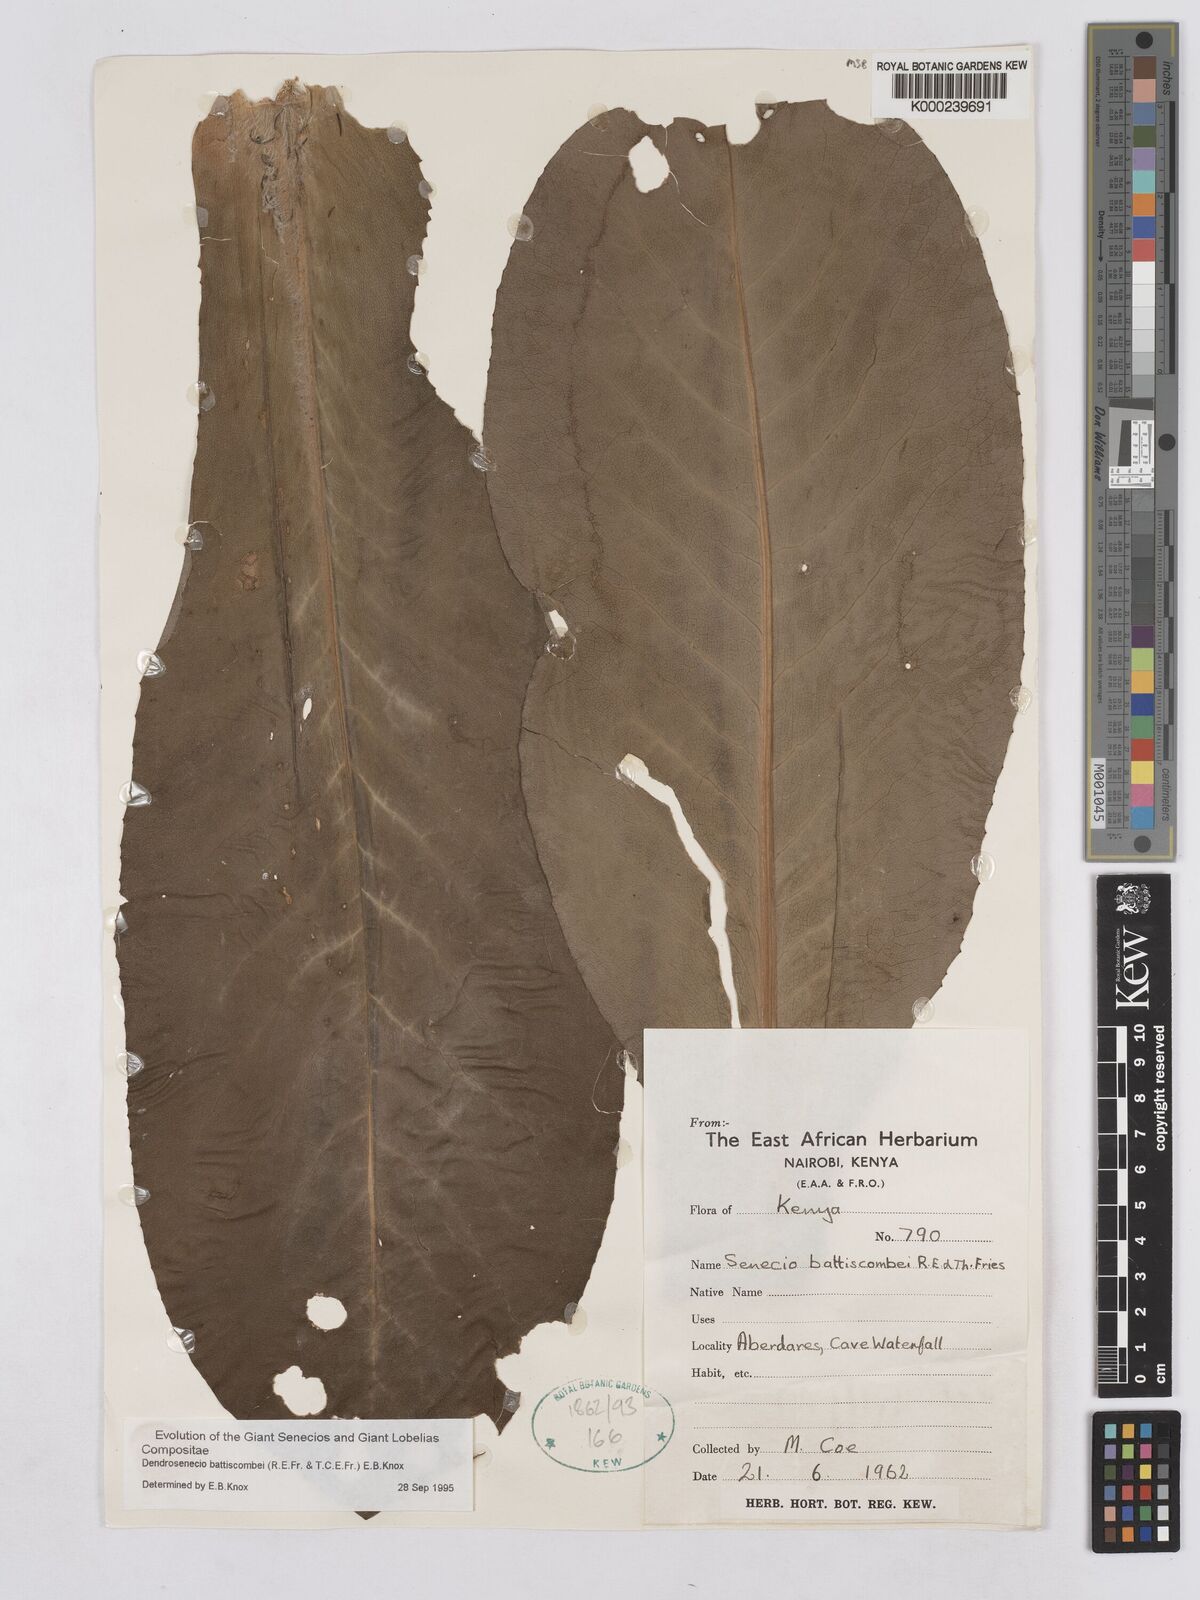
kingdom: Plantae
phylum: Tracheophyta
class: Magnoliopsida
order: Asterales
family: Asteraceae
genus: Dendrosenecio
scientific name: Dendrosenecio battiscombei
